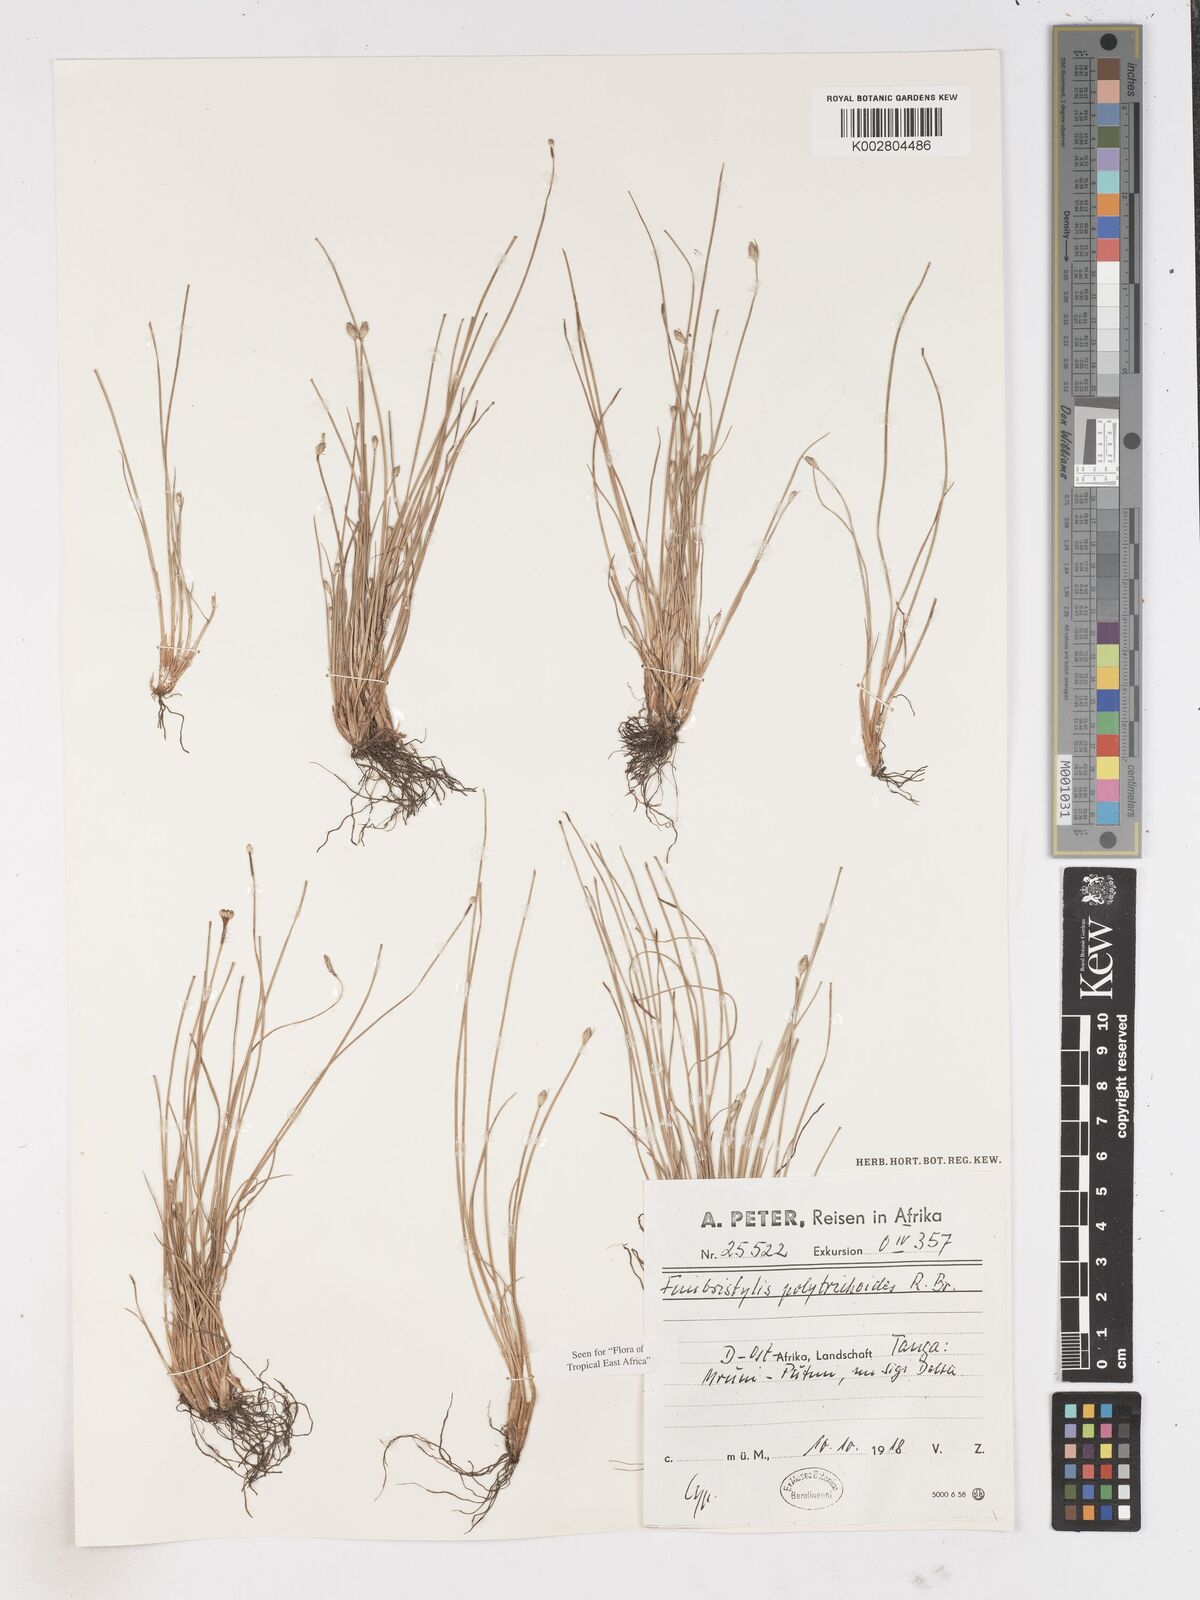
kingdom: Plantae
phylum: Tracheophyta
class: Liliopsida
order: Poales
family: Cyperaceae
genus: Fimbristylis
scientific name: Fimbristylis polytrichoides
